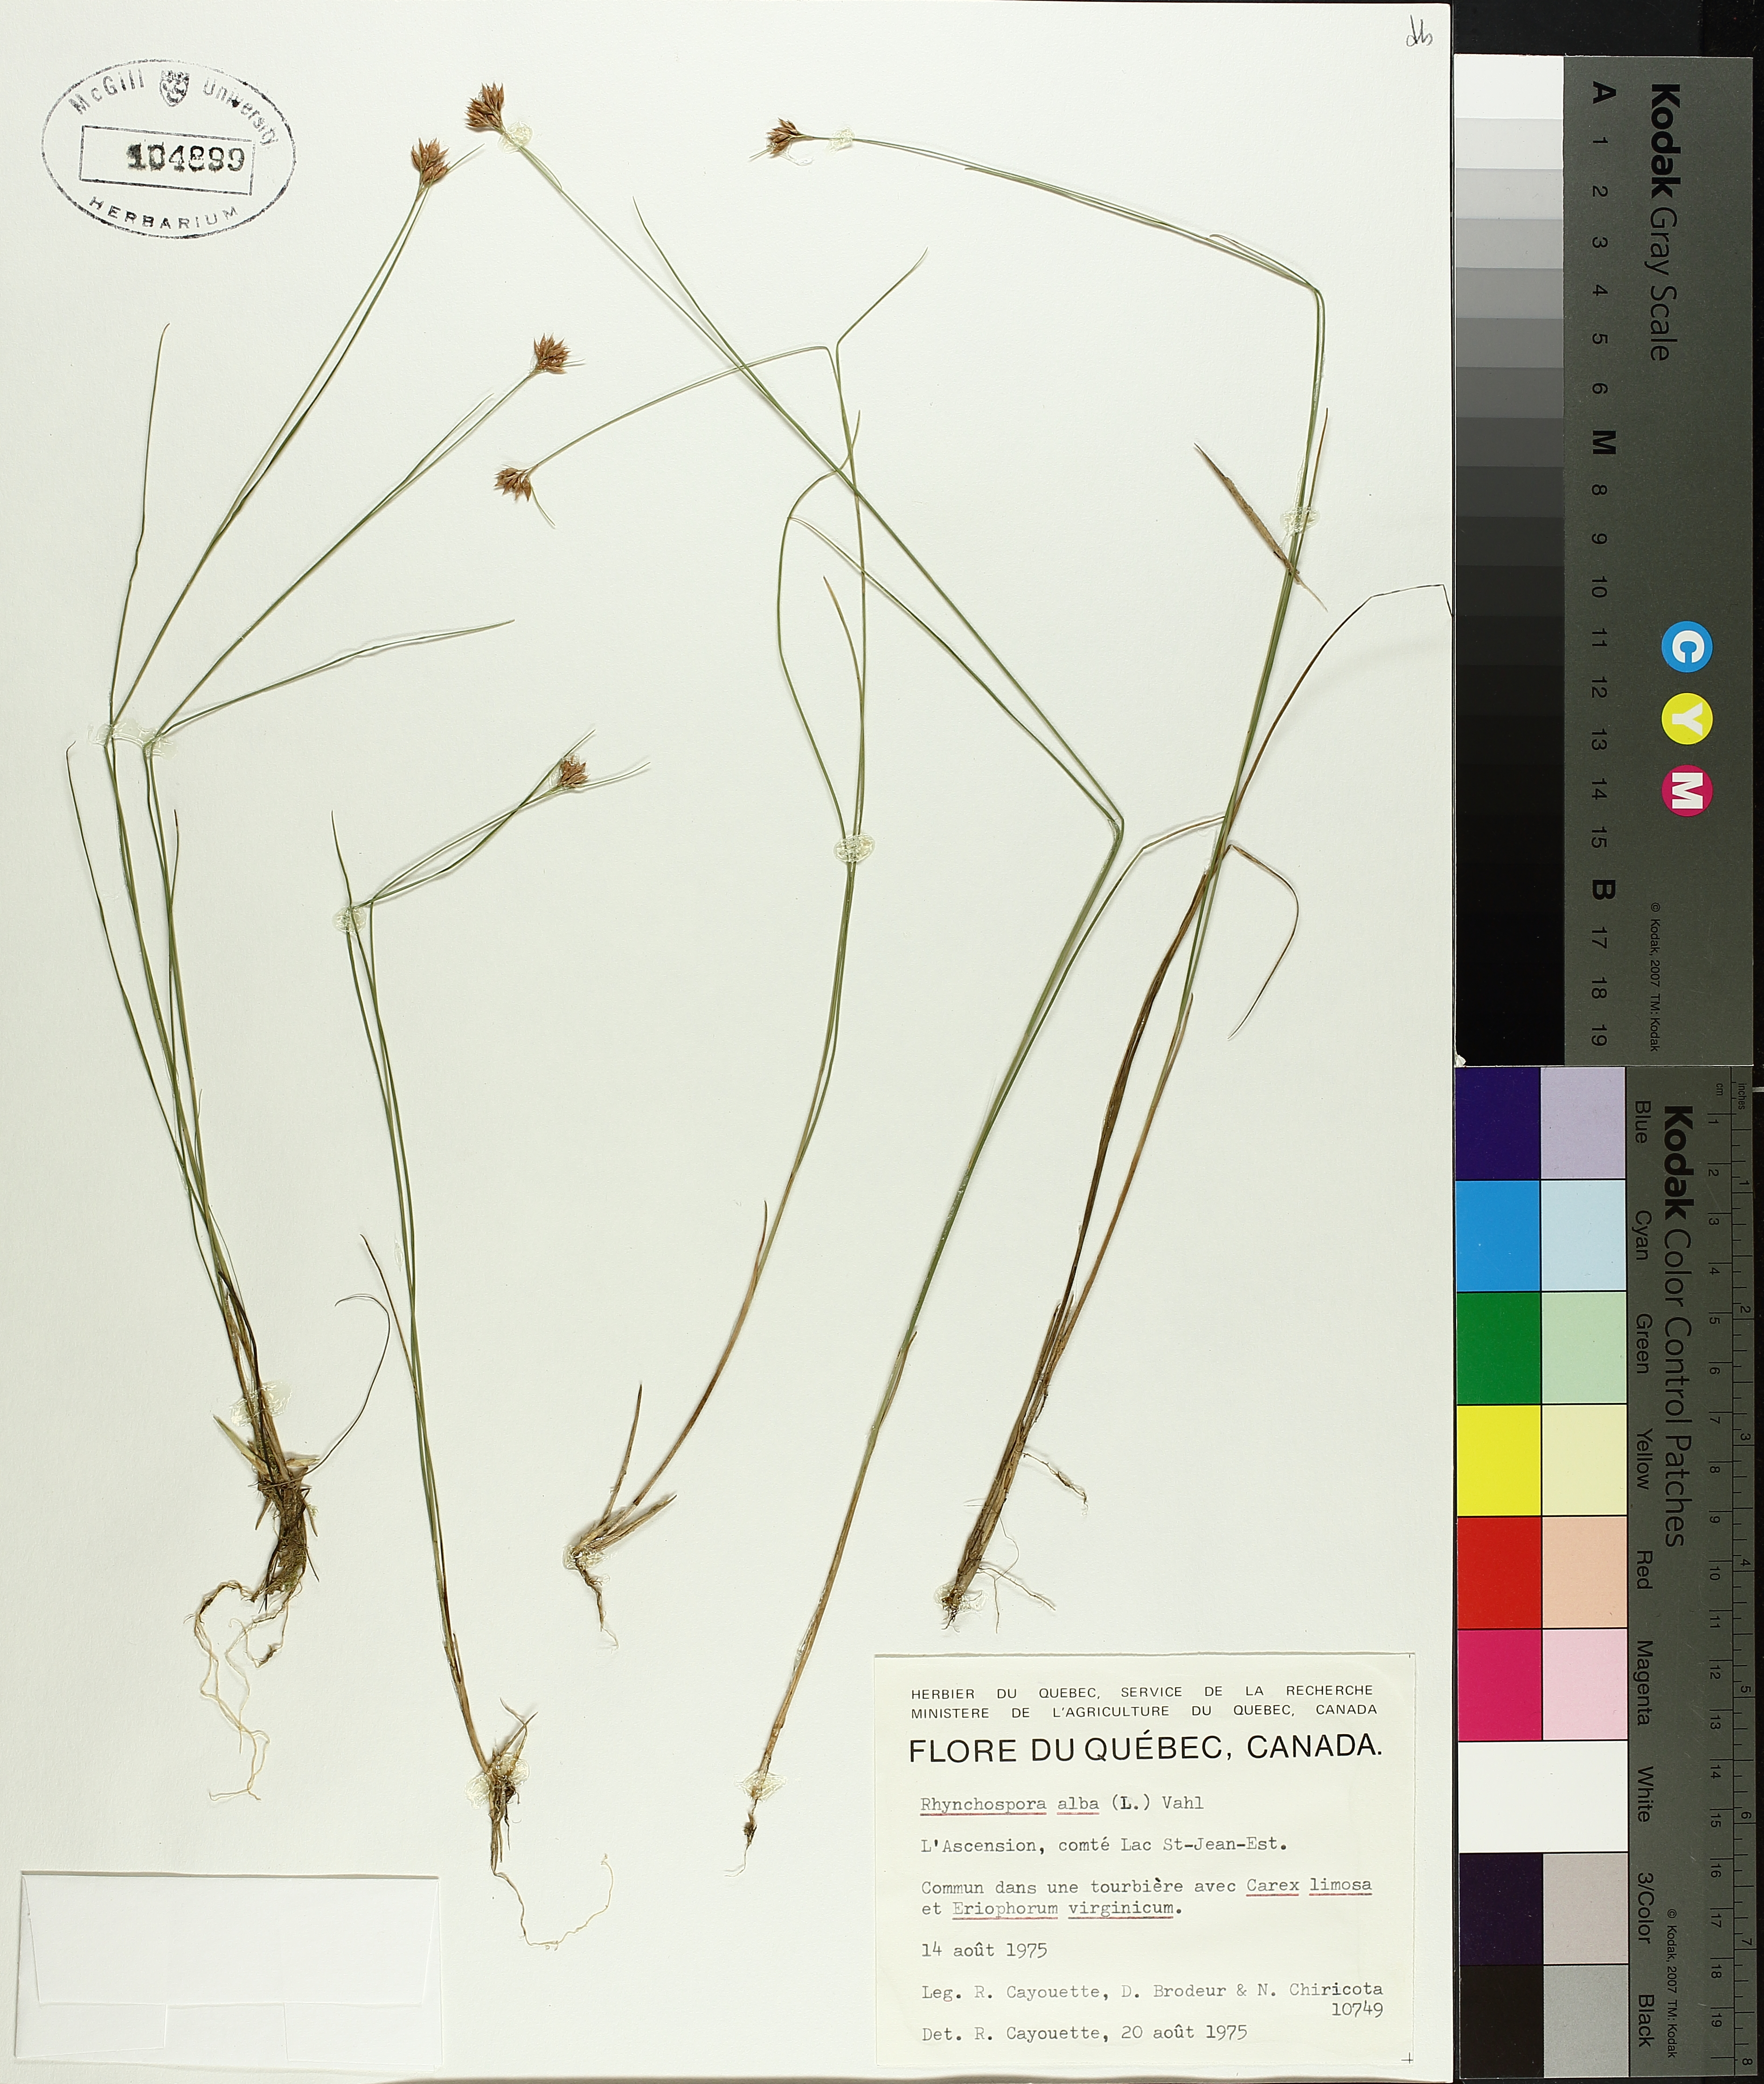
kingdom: Plantae
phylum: Tracheophyta
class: Liliopsida
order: Poales
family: Cyperaceae
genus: Rhynchospora
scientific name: Rhynchospora alba
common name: White beak-sedge
